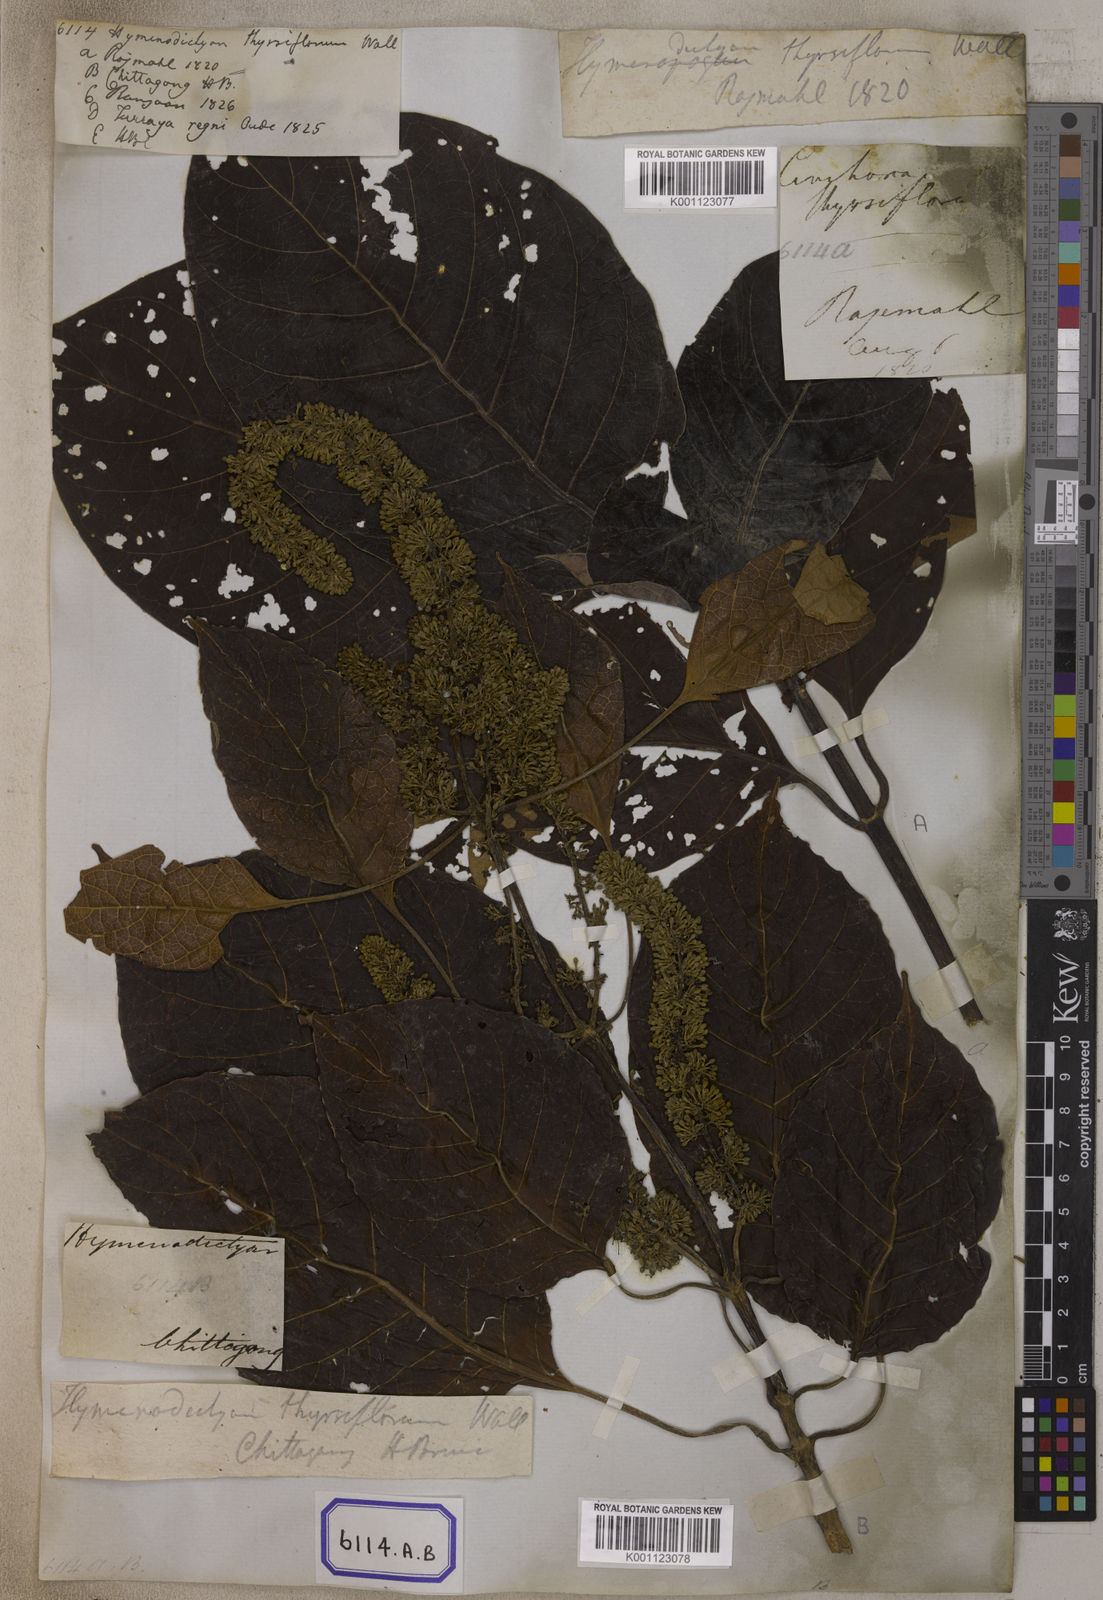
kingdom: Plantae
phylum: Tracheophyta
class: Magnoliopsida
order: Gentianales
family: Rubiaceae
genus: Hymenodictyon
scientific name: Hymenodictyon orixense
